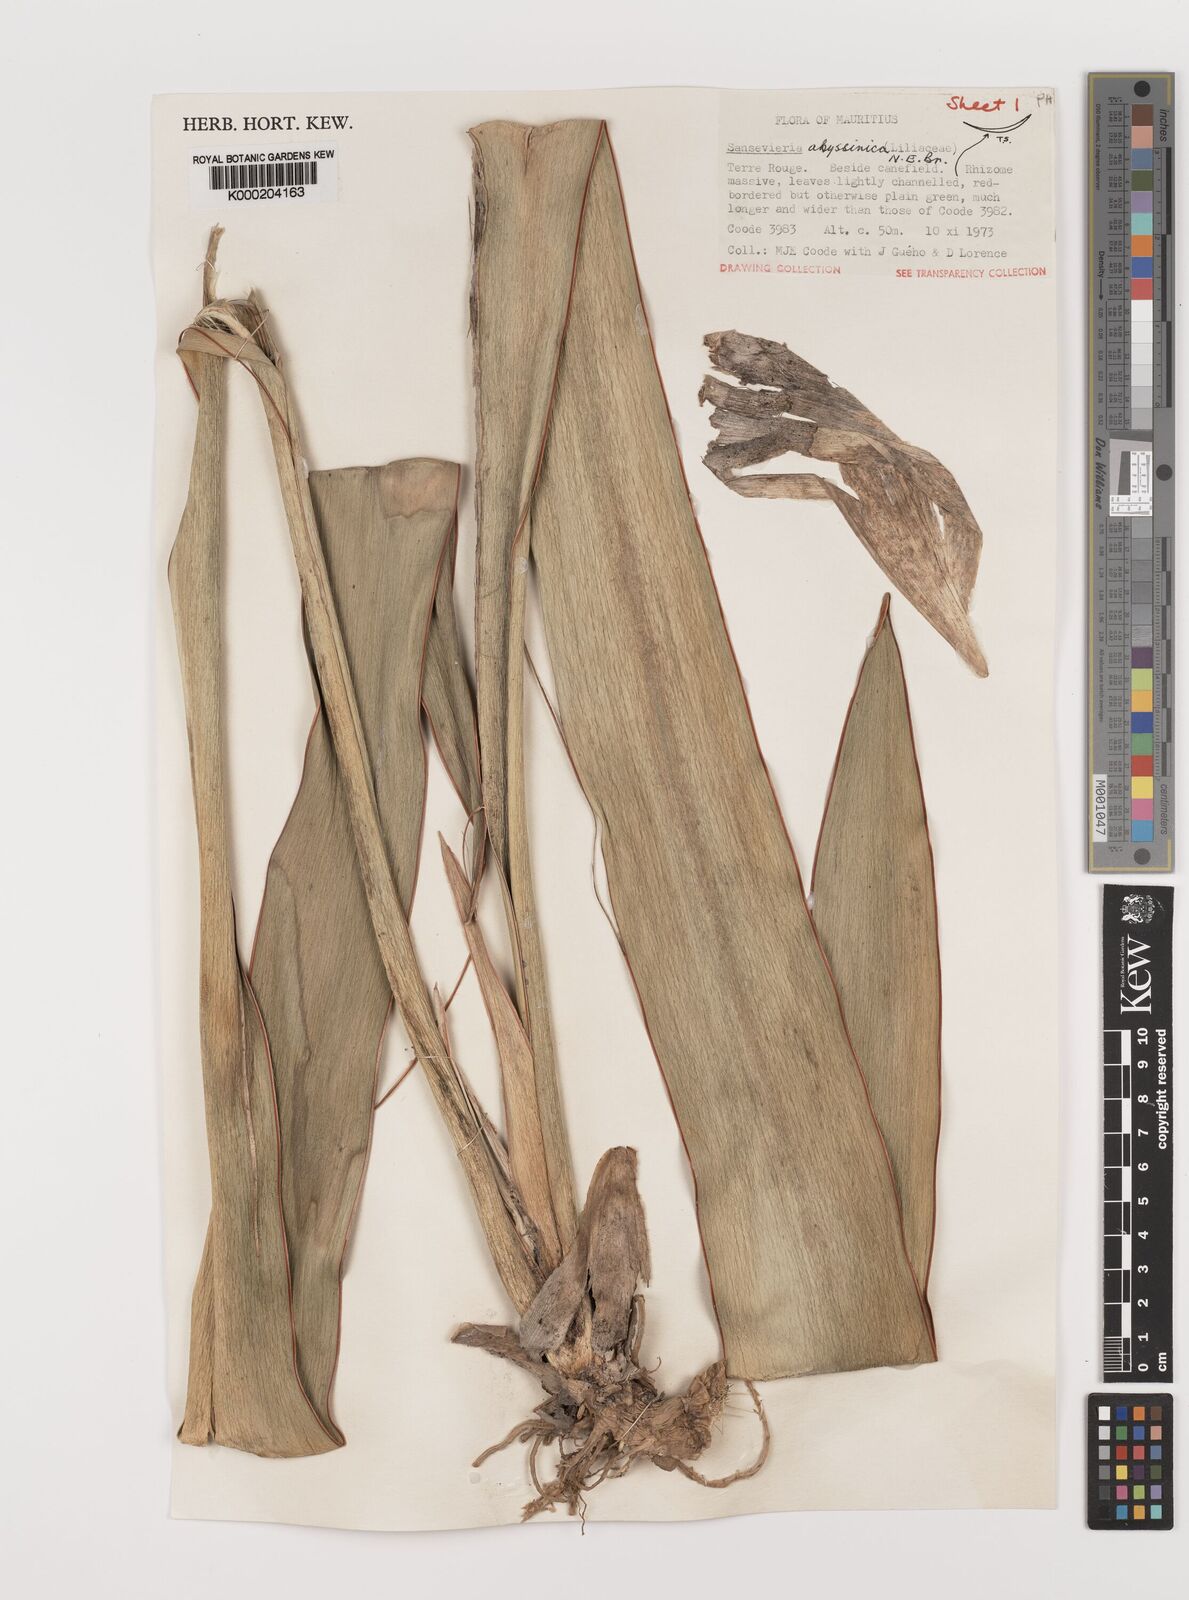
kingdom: Plantae
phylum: Tracheophyta
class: Liliopsida
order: Asparagales
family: Asparagaceae
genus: Dracaena
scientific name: Dracaena forskaliana
